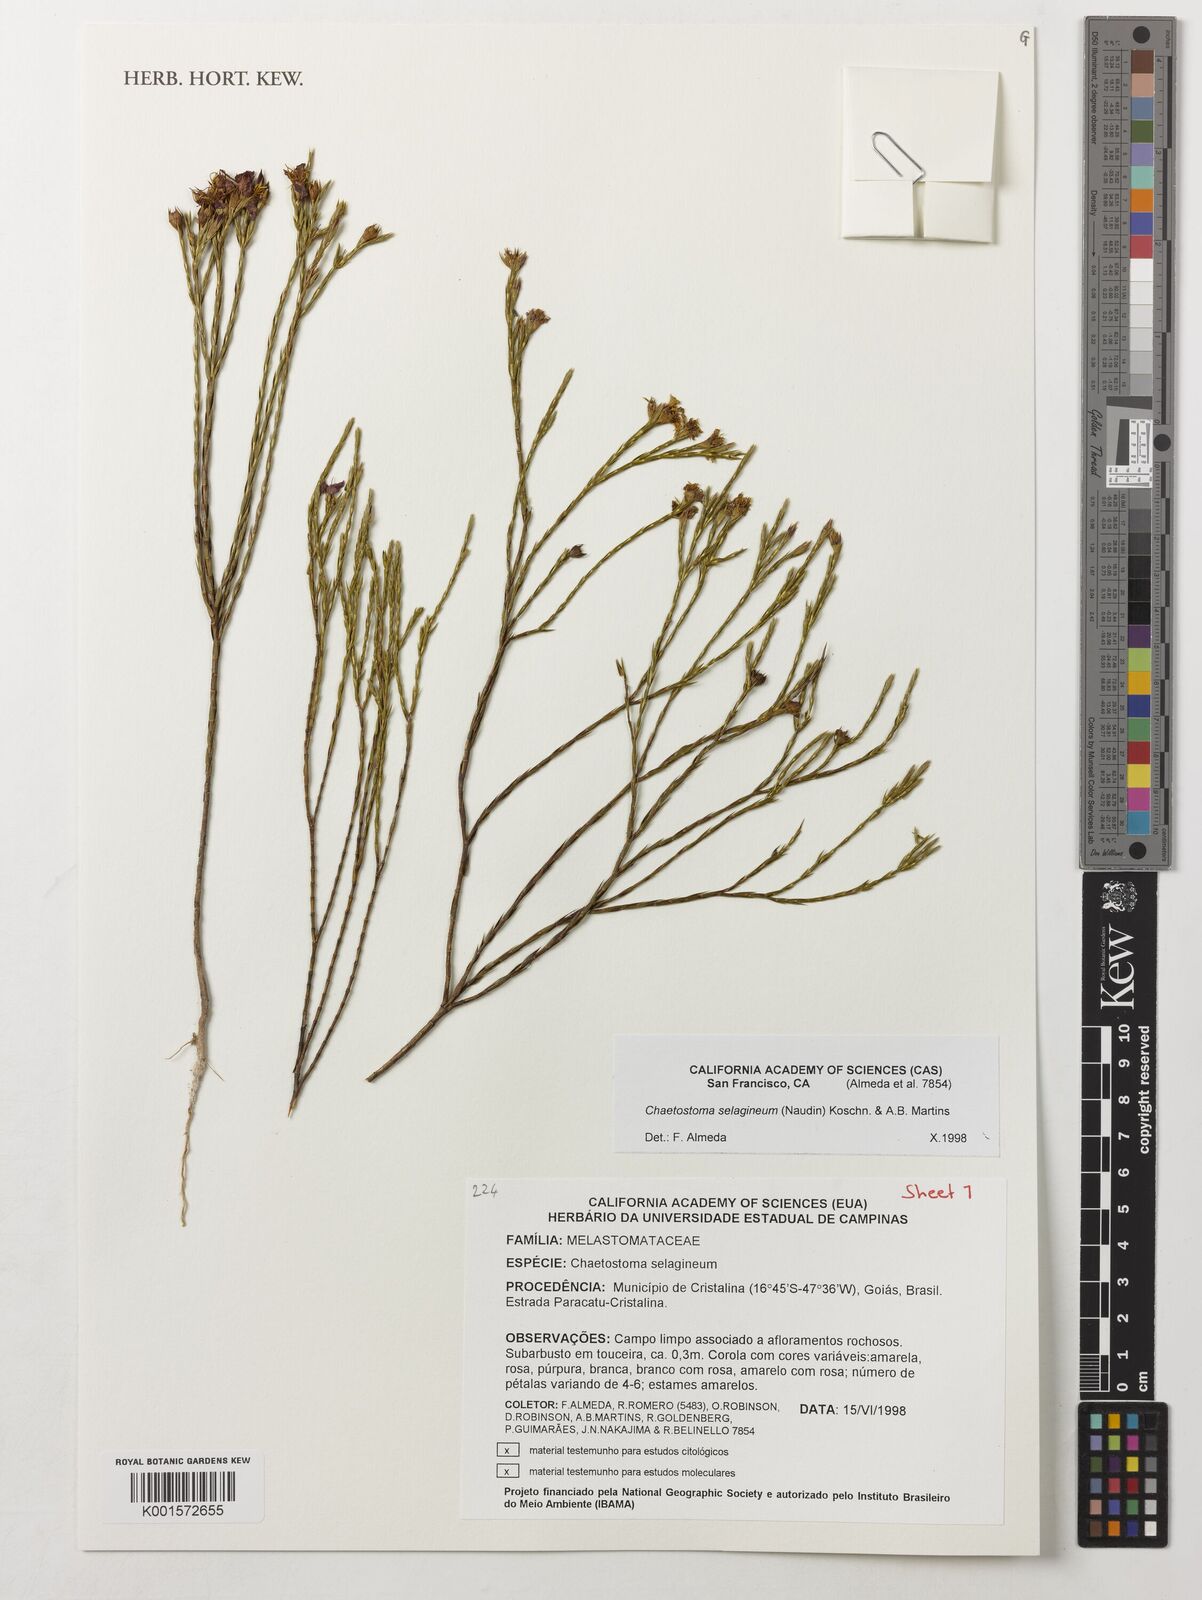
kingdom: Plantae
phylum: Tracheophyta
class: Magnoliopsida
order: Myrtales
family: Melastomataceae
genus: Microlicia
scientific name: Microlicia selaginea
